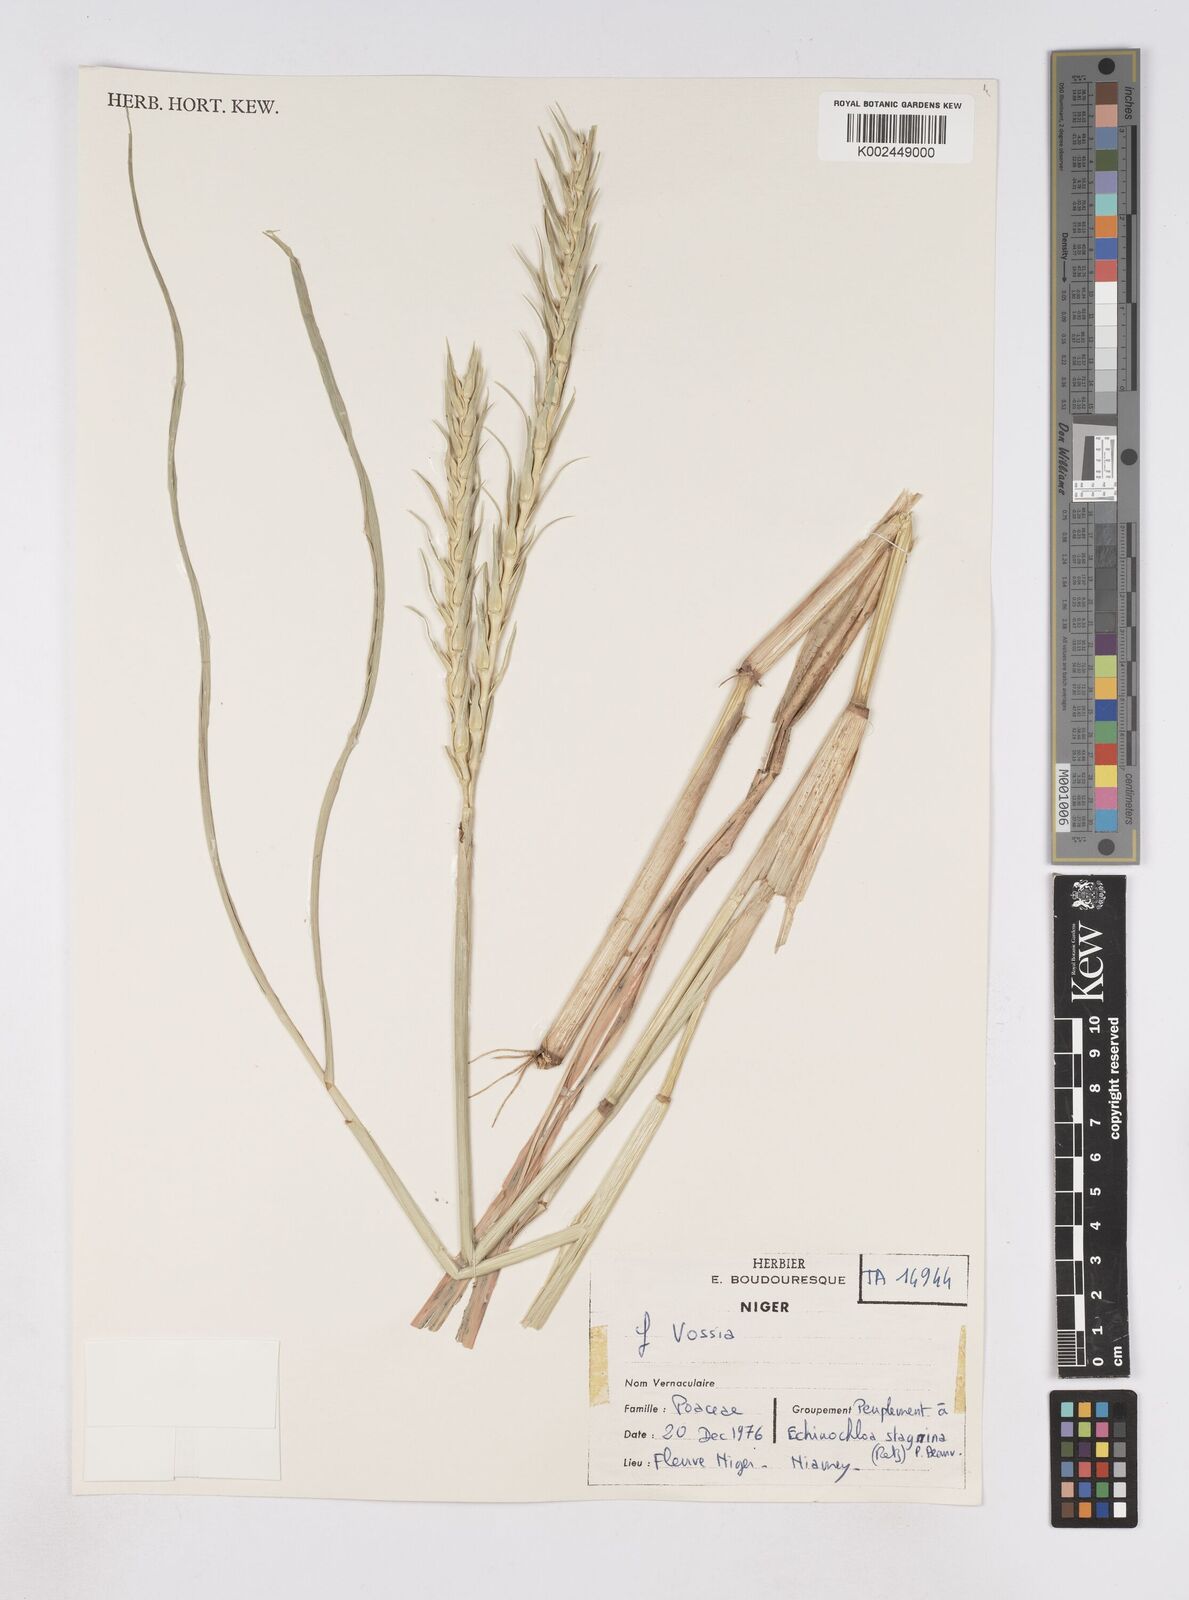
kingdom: Plantae
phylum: Tracheophyta
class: Liliopsida
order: Poales
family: Poaceae
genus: Vossia
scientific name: Vossia cuspidata
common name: Hippo grass
